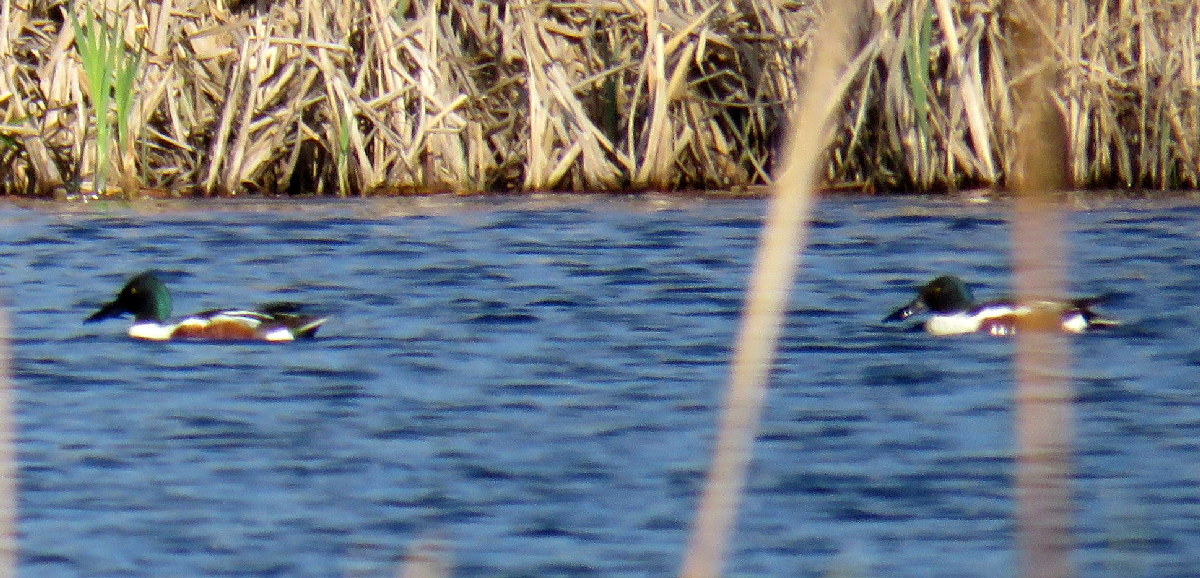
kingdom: Animalia
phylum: Chordata
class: Aves
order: Anseriformes
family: Anatidae
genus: Spatula
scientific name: Spatula clypeata
